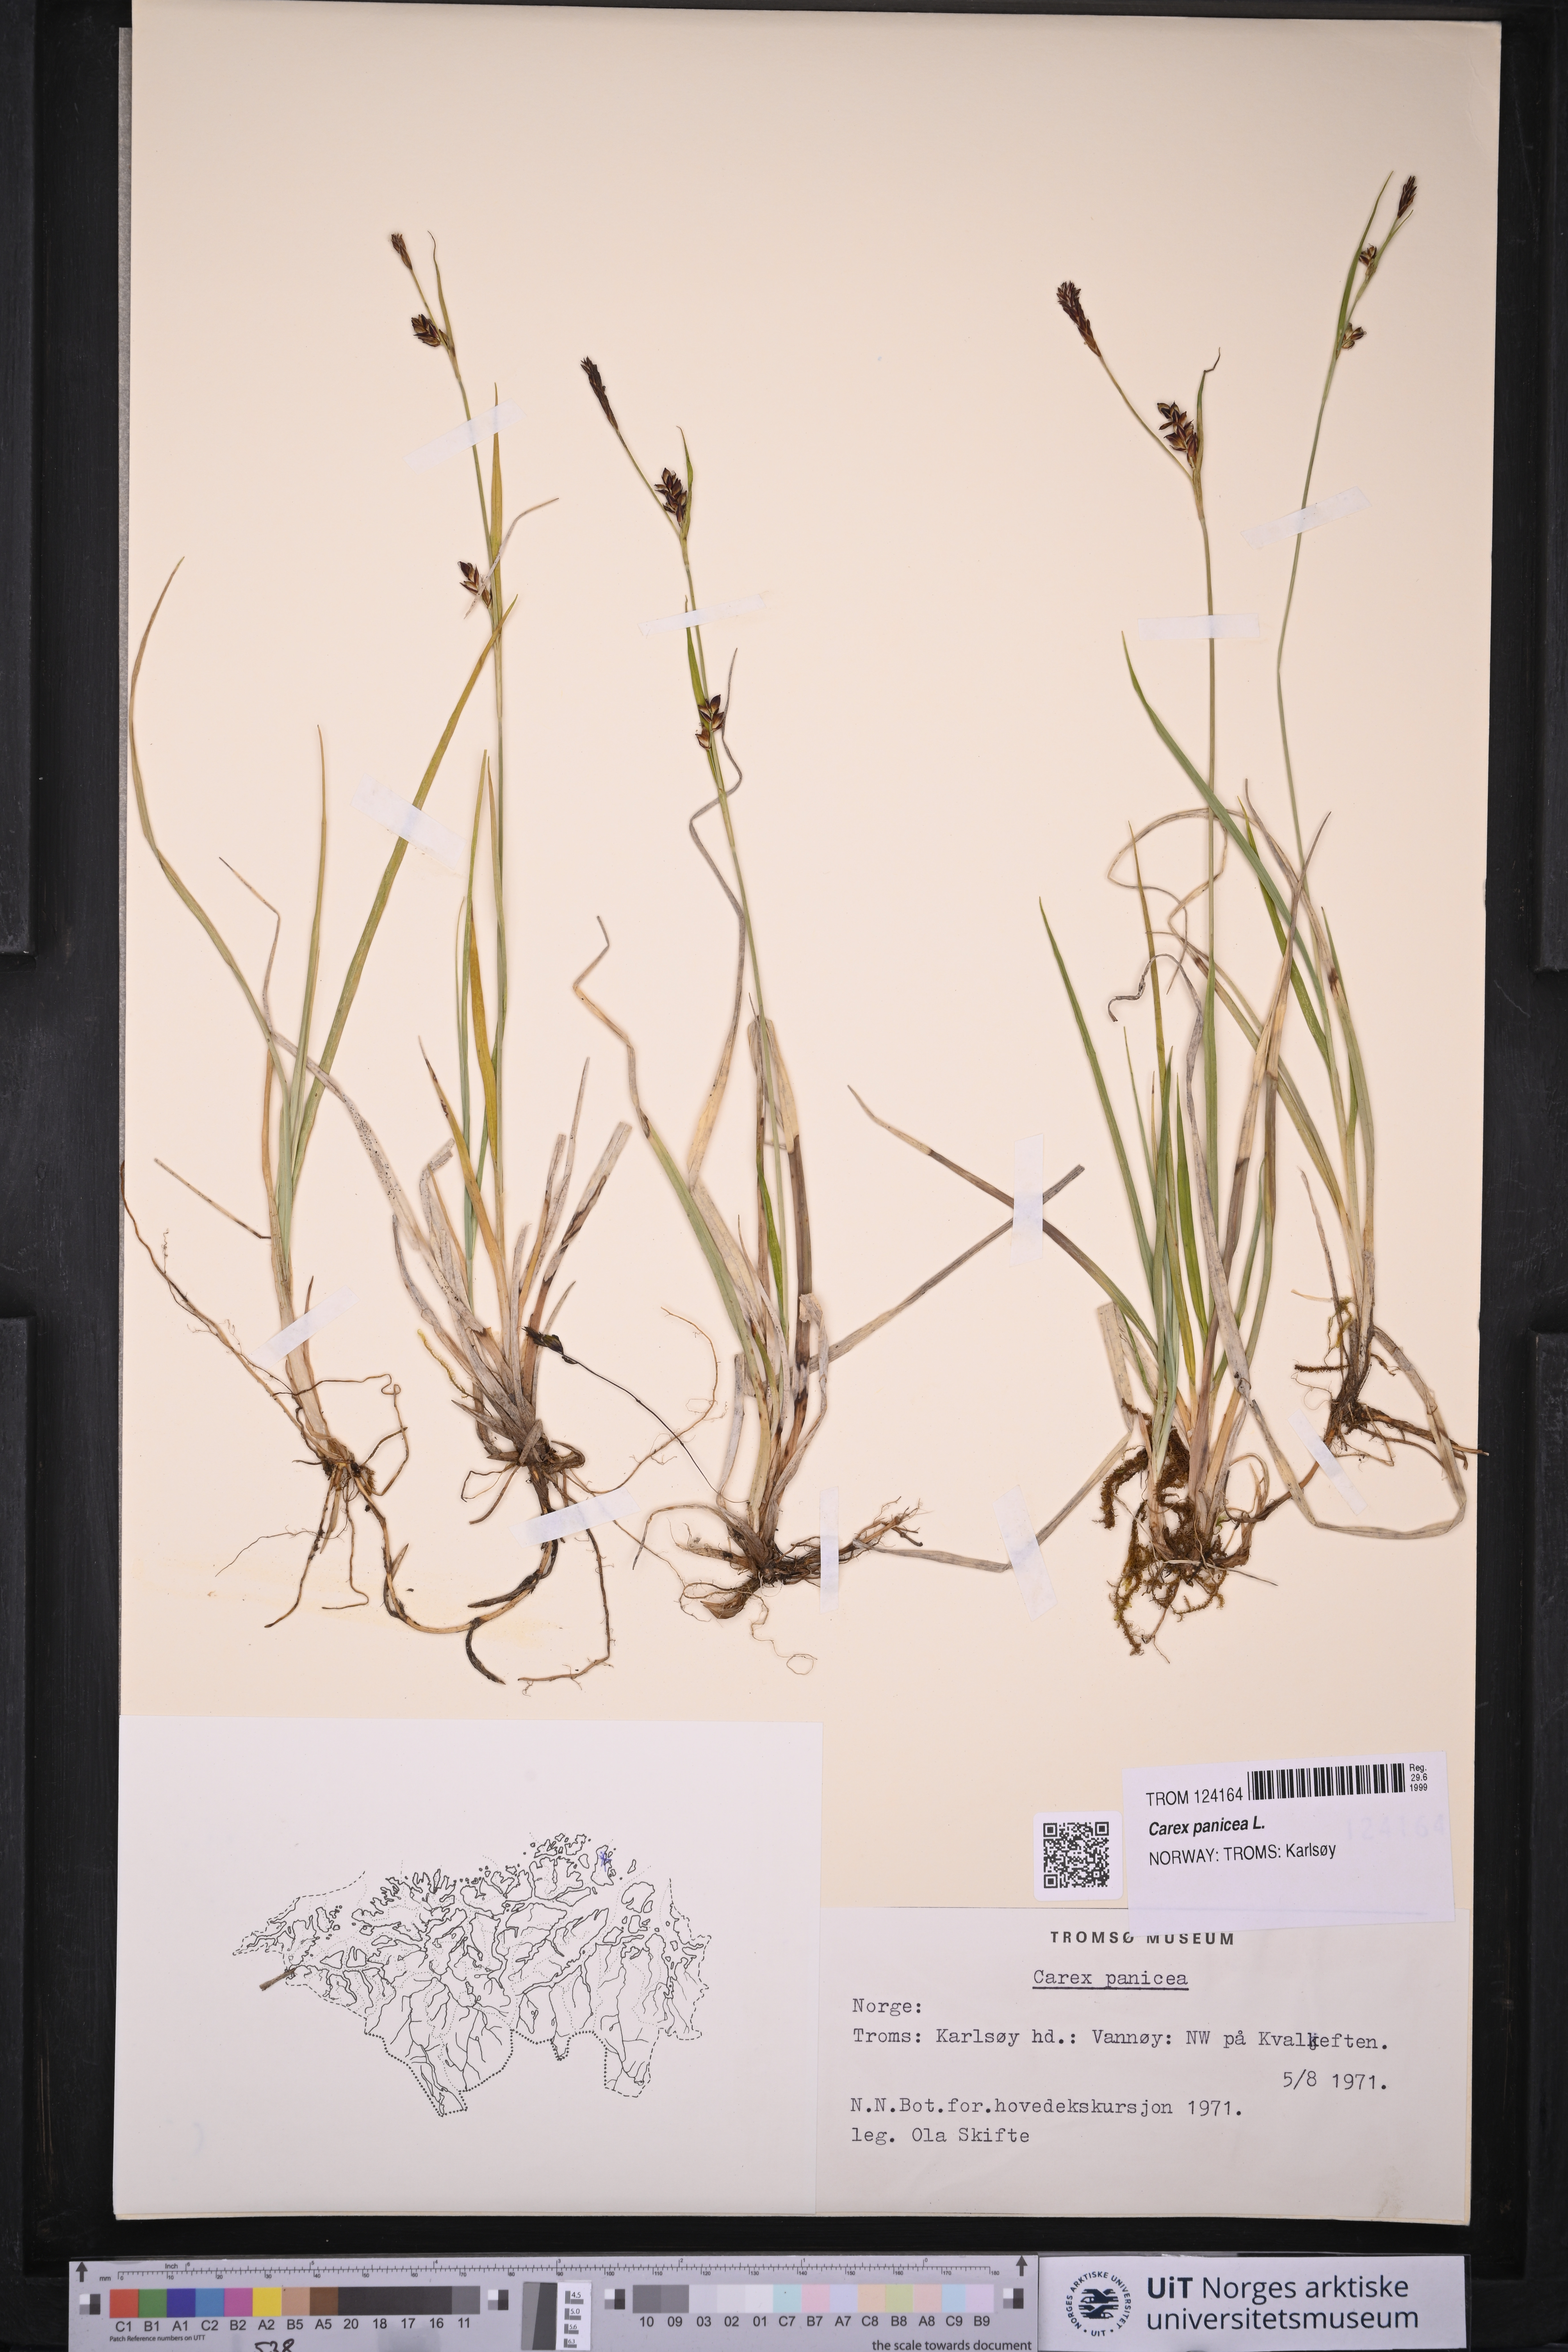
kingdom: Plantae
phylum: Tracheophyta
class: Liliopsida
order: Poales
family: Cyperaceae
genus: Carex
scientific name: Carex panicea
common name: Carnation sedge
